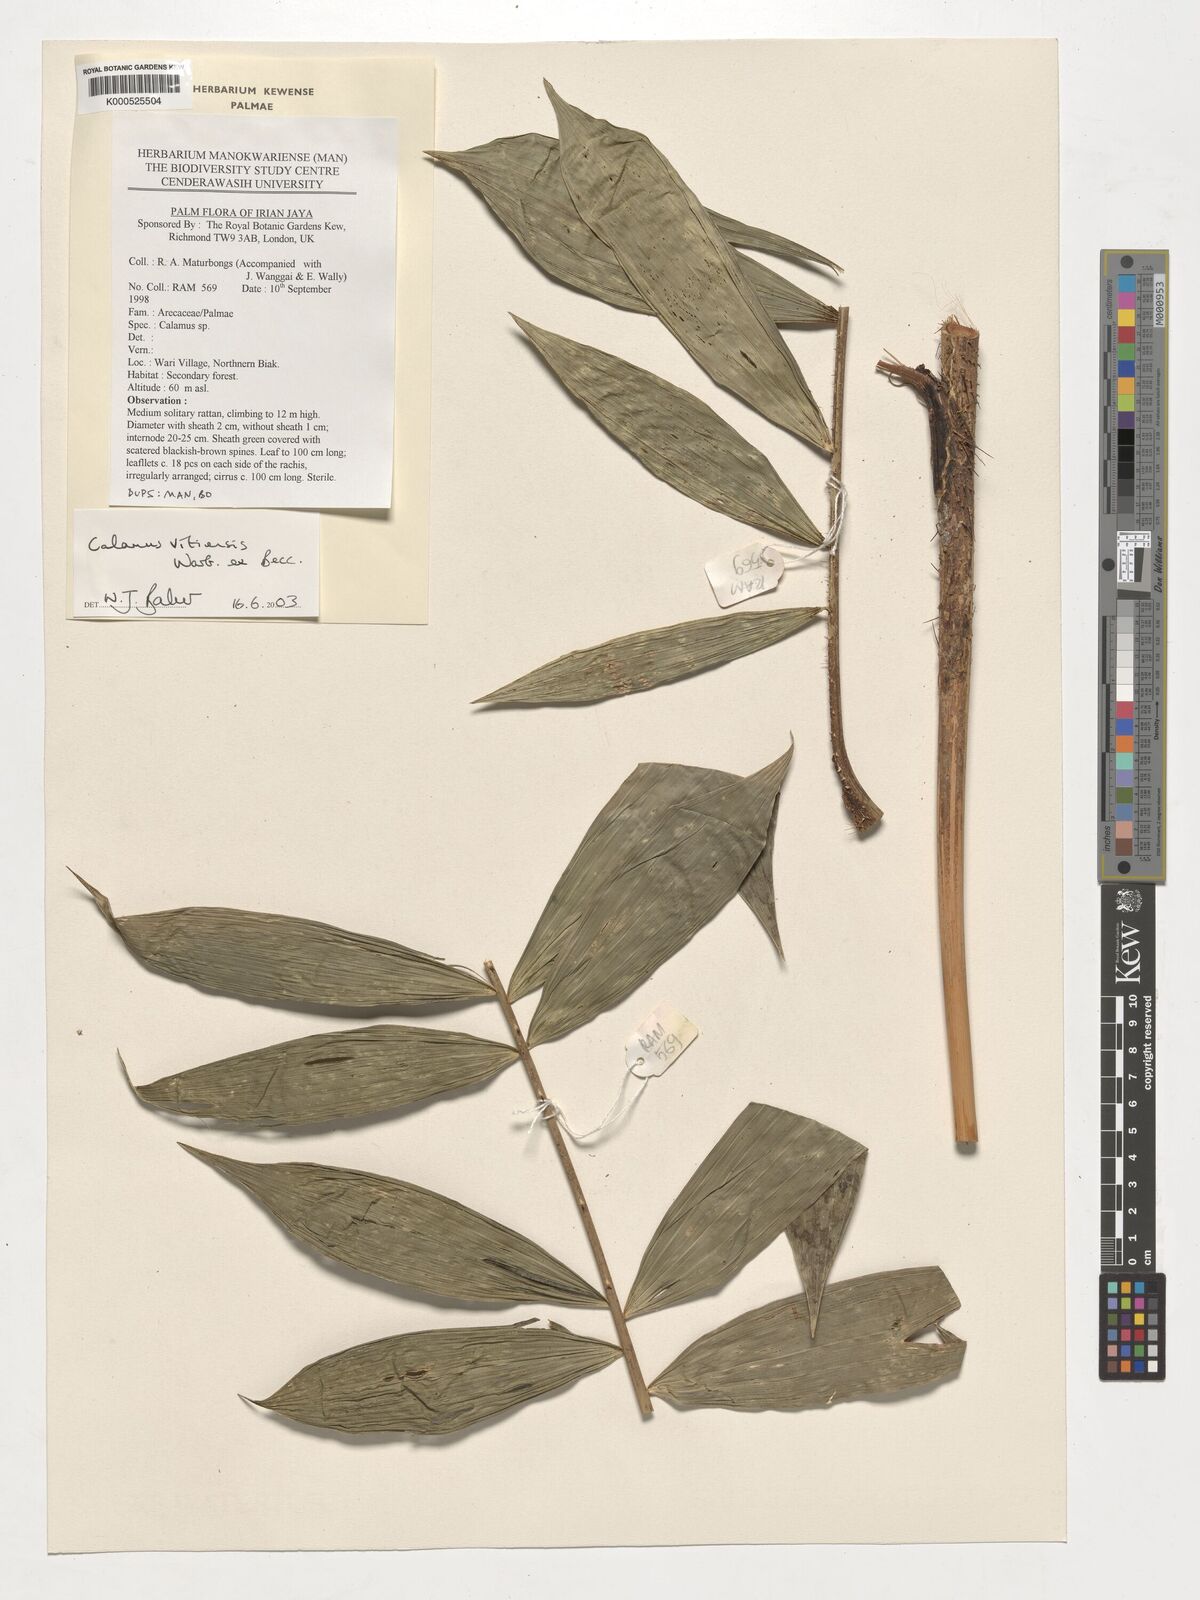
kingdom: Plantae
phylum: Tracheophyta
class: Liliopsida
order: Arecales
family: Arecaceae
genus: Calamus
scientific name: Calamus vitiensis
